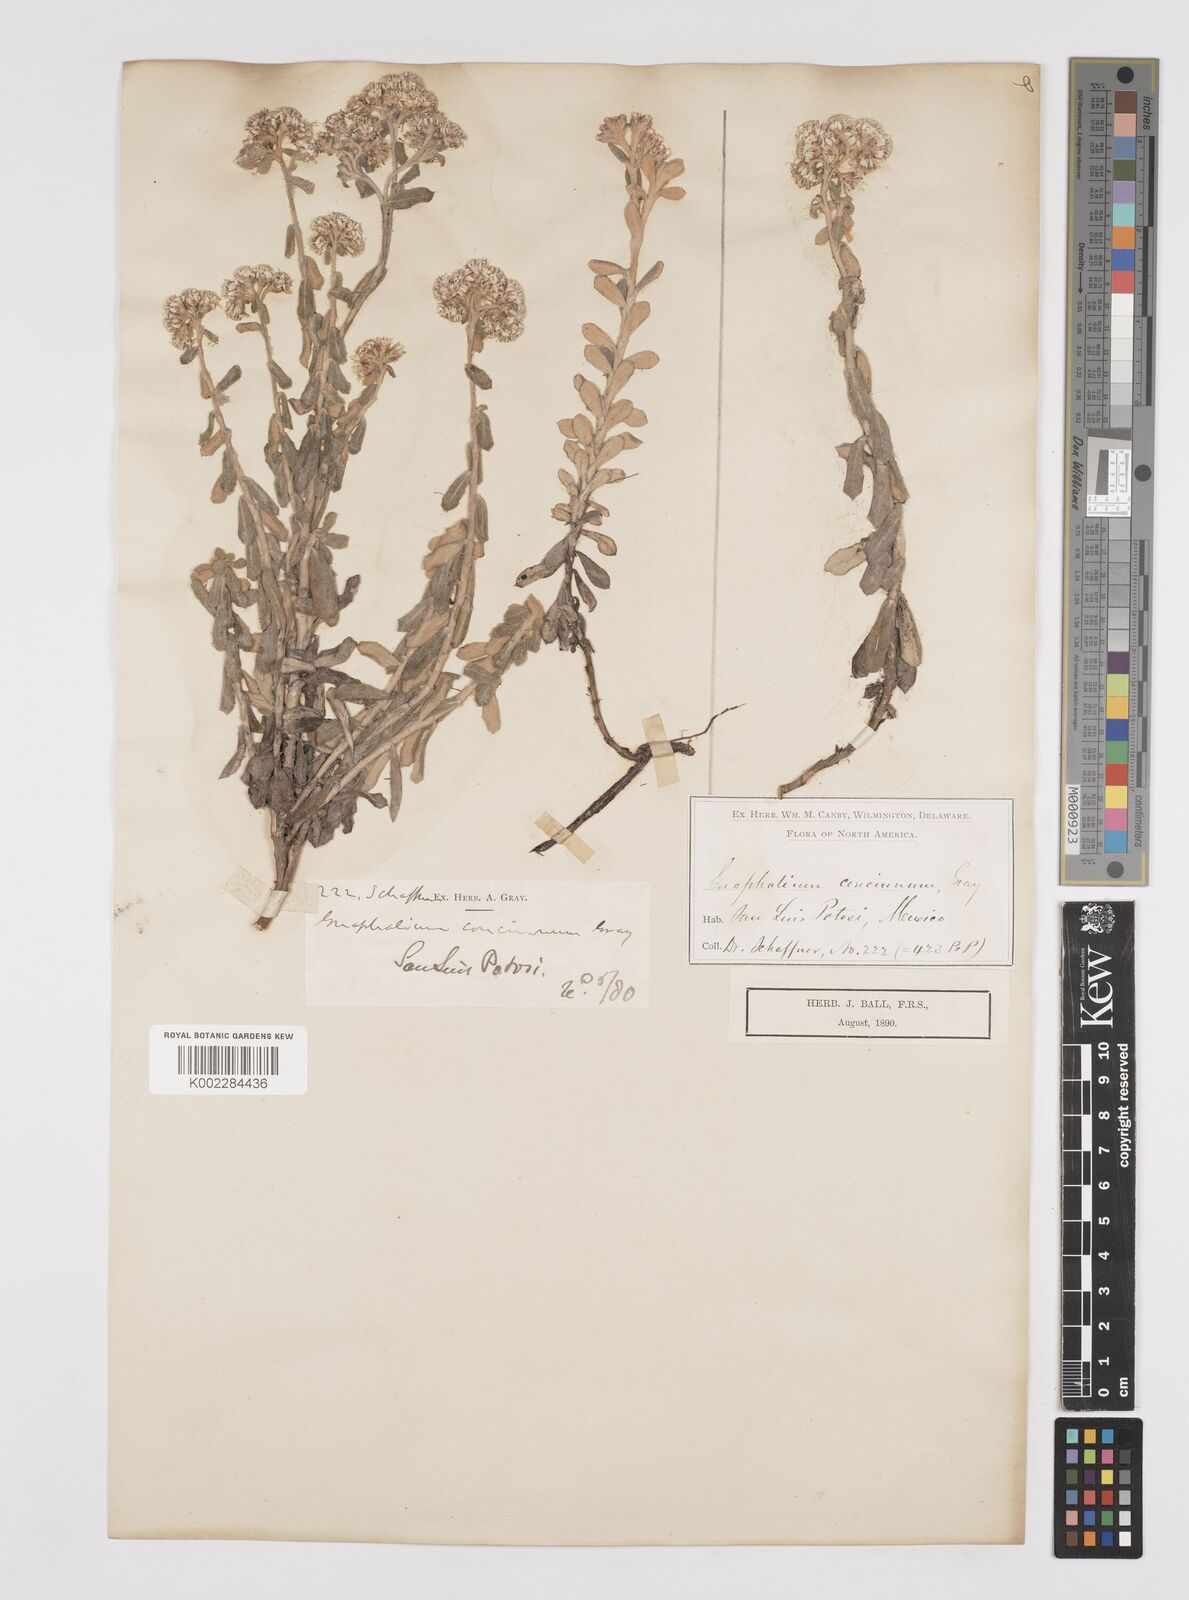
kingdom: Plantae
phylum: Tracheophyta
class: Magnoliopsida
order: Asterales
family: Asteraceae
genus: Gnaphaliothamnus
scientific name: Gnaphaliothamnus concinnus
